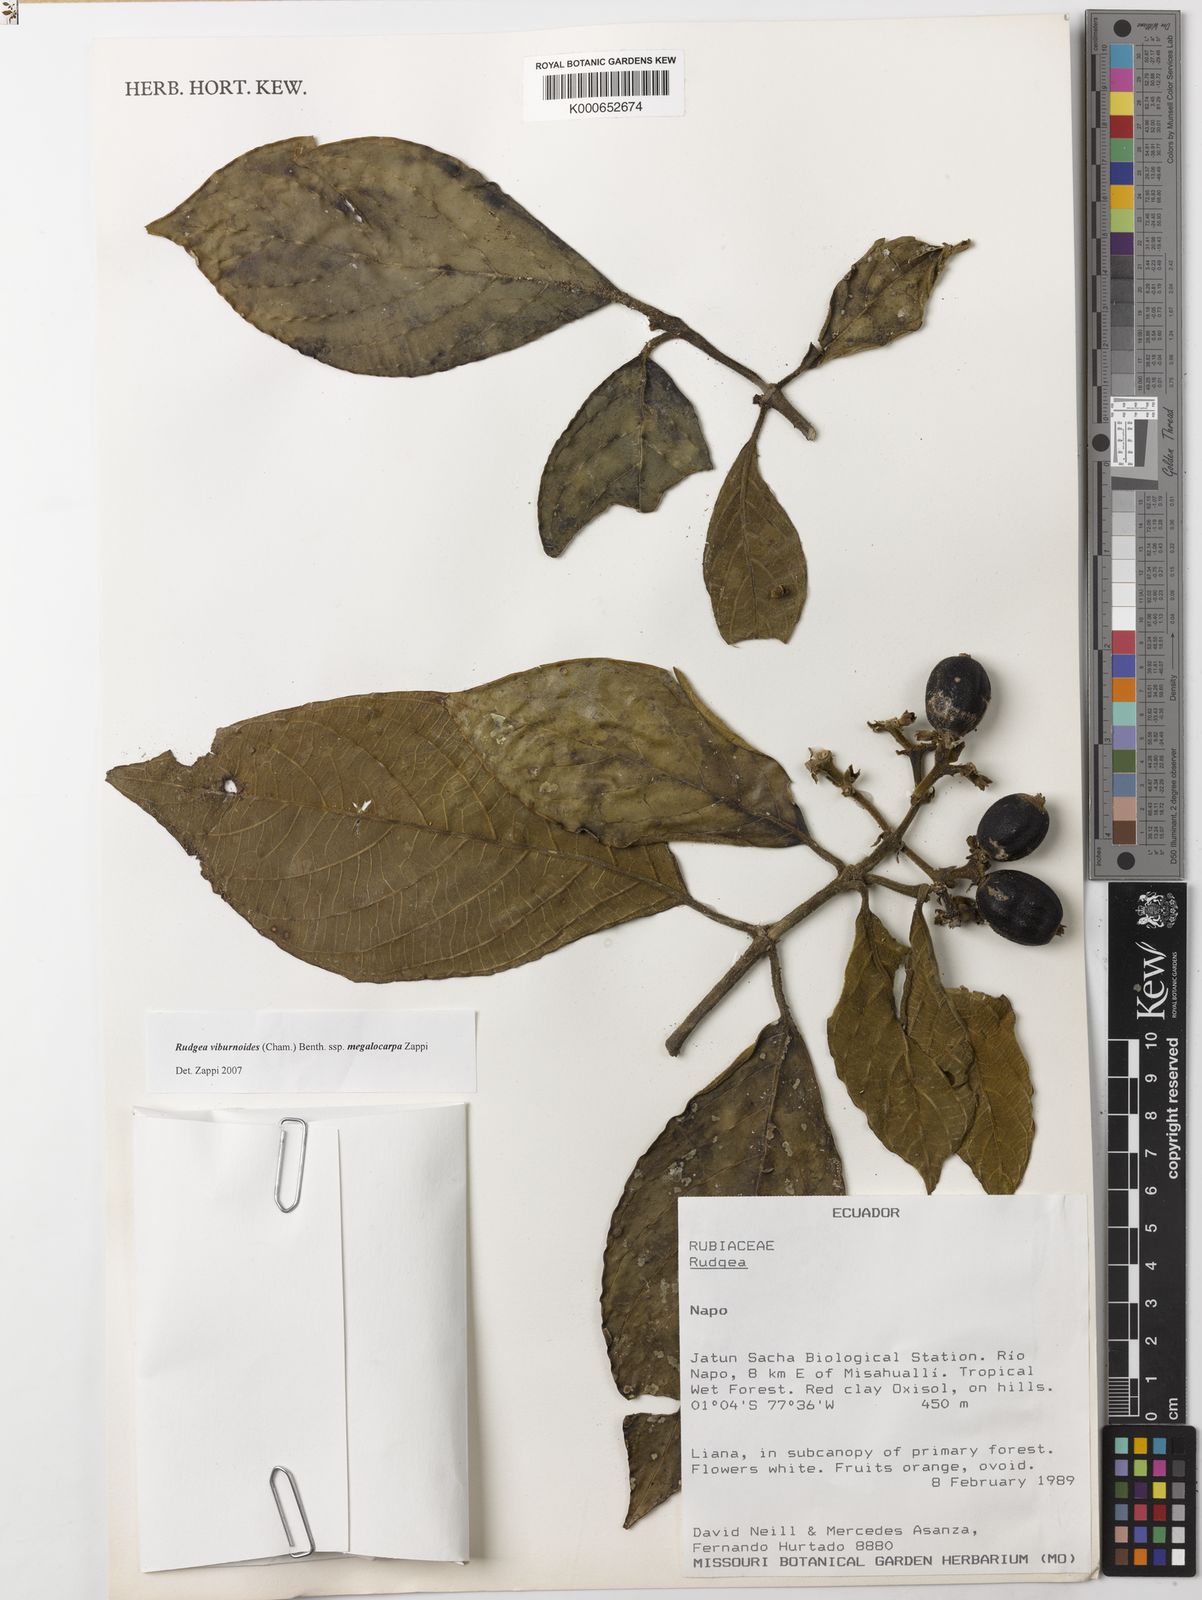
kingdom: Plantae
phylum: Tracheophyta
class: Magnoliopsida
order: Gentianales
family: Rubiaceae
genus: Rudgea
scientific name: Rudgea viburnoides
